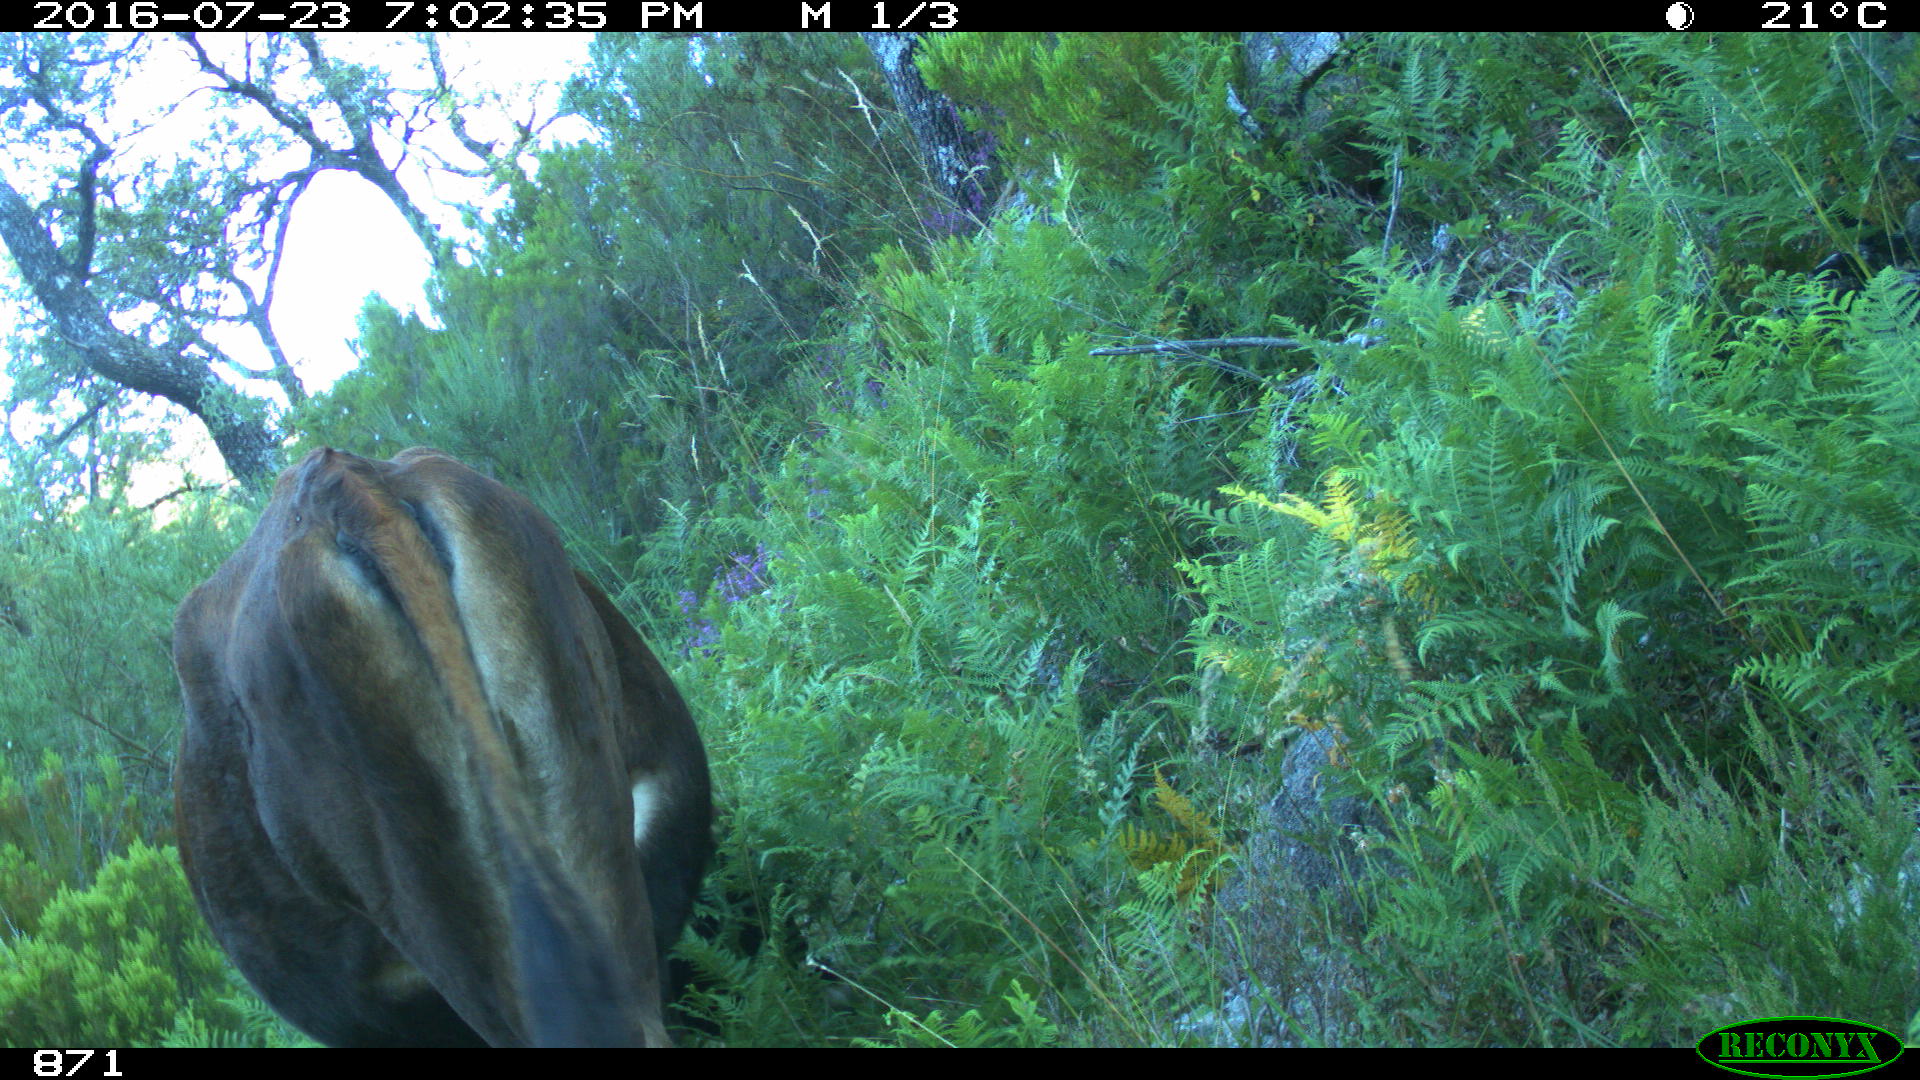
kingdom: Animalia
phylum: Chordata
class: Mammalia
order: Artiodactyla
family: Bovidae
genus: Bos
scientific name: Bos taurus
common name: Domesticated cattle
